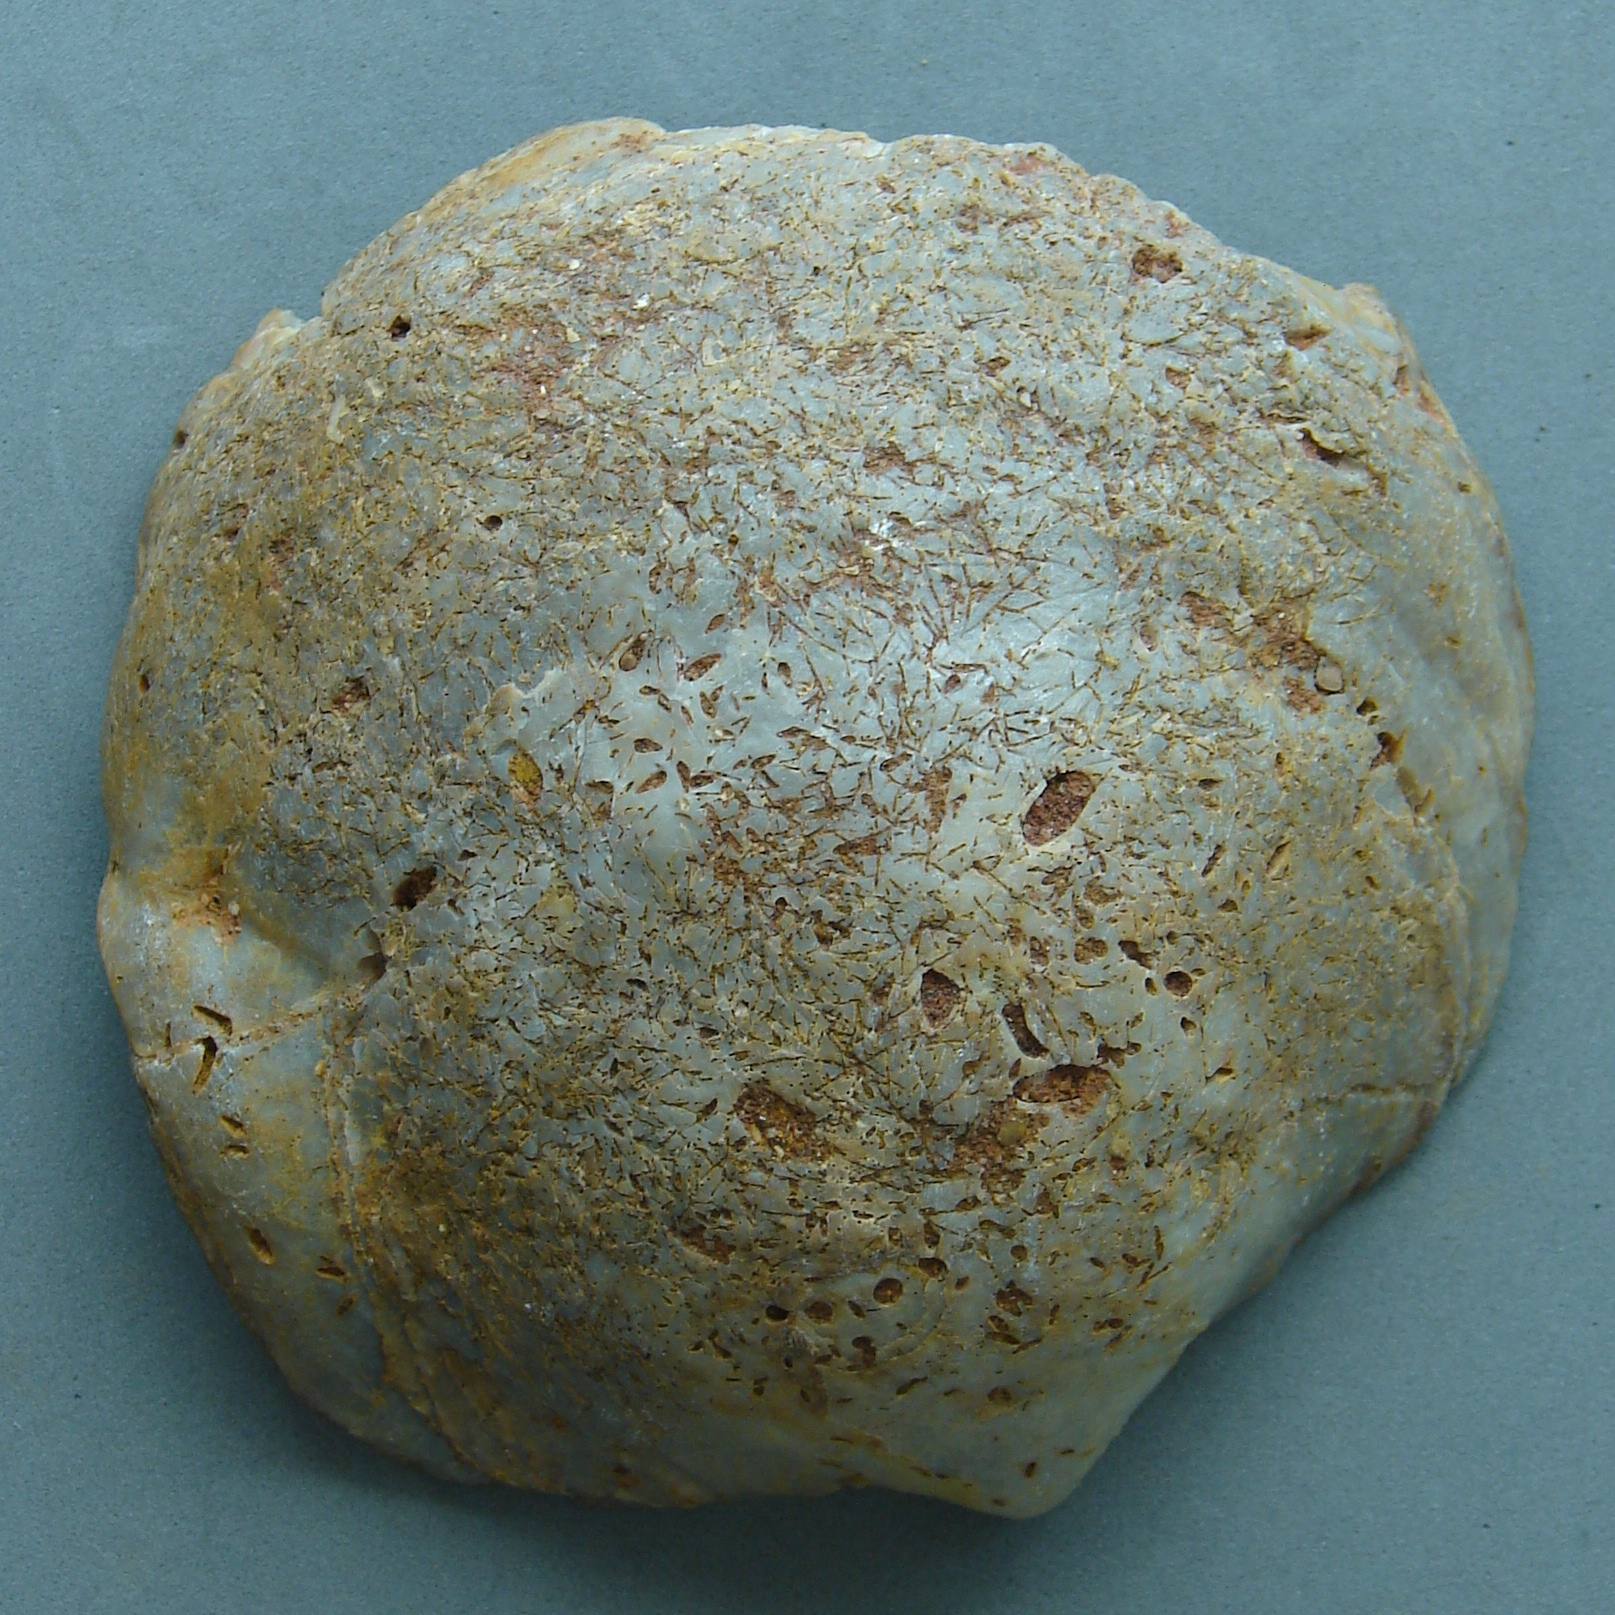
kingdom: Animalia
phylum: Mollusca
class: Bivalvia
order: Ostreida
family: Gryphaeidae
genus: Gryphaea
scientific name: Gryphaea
